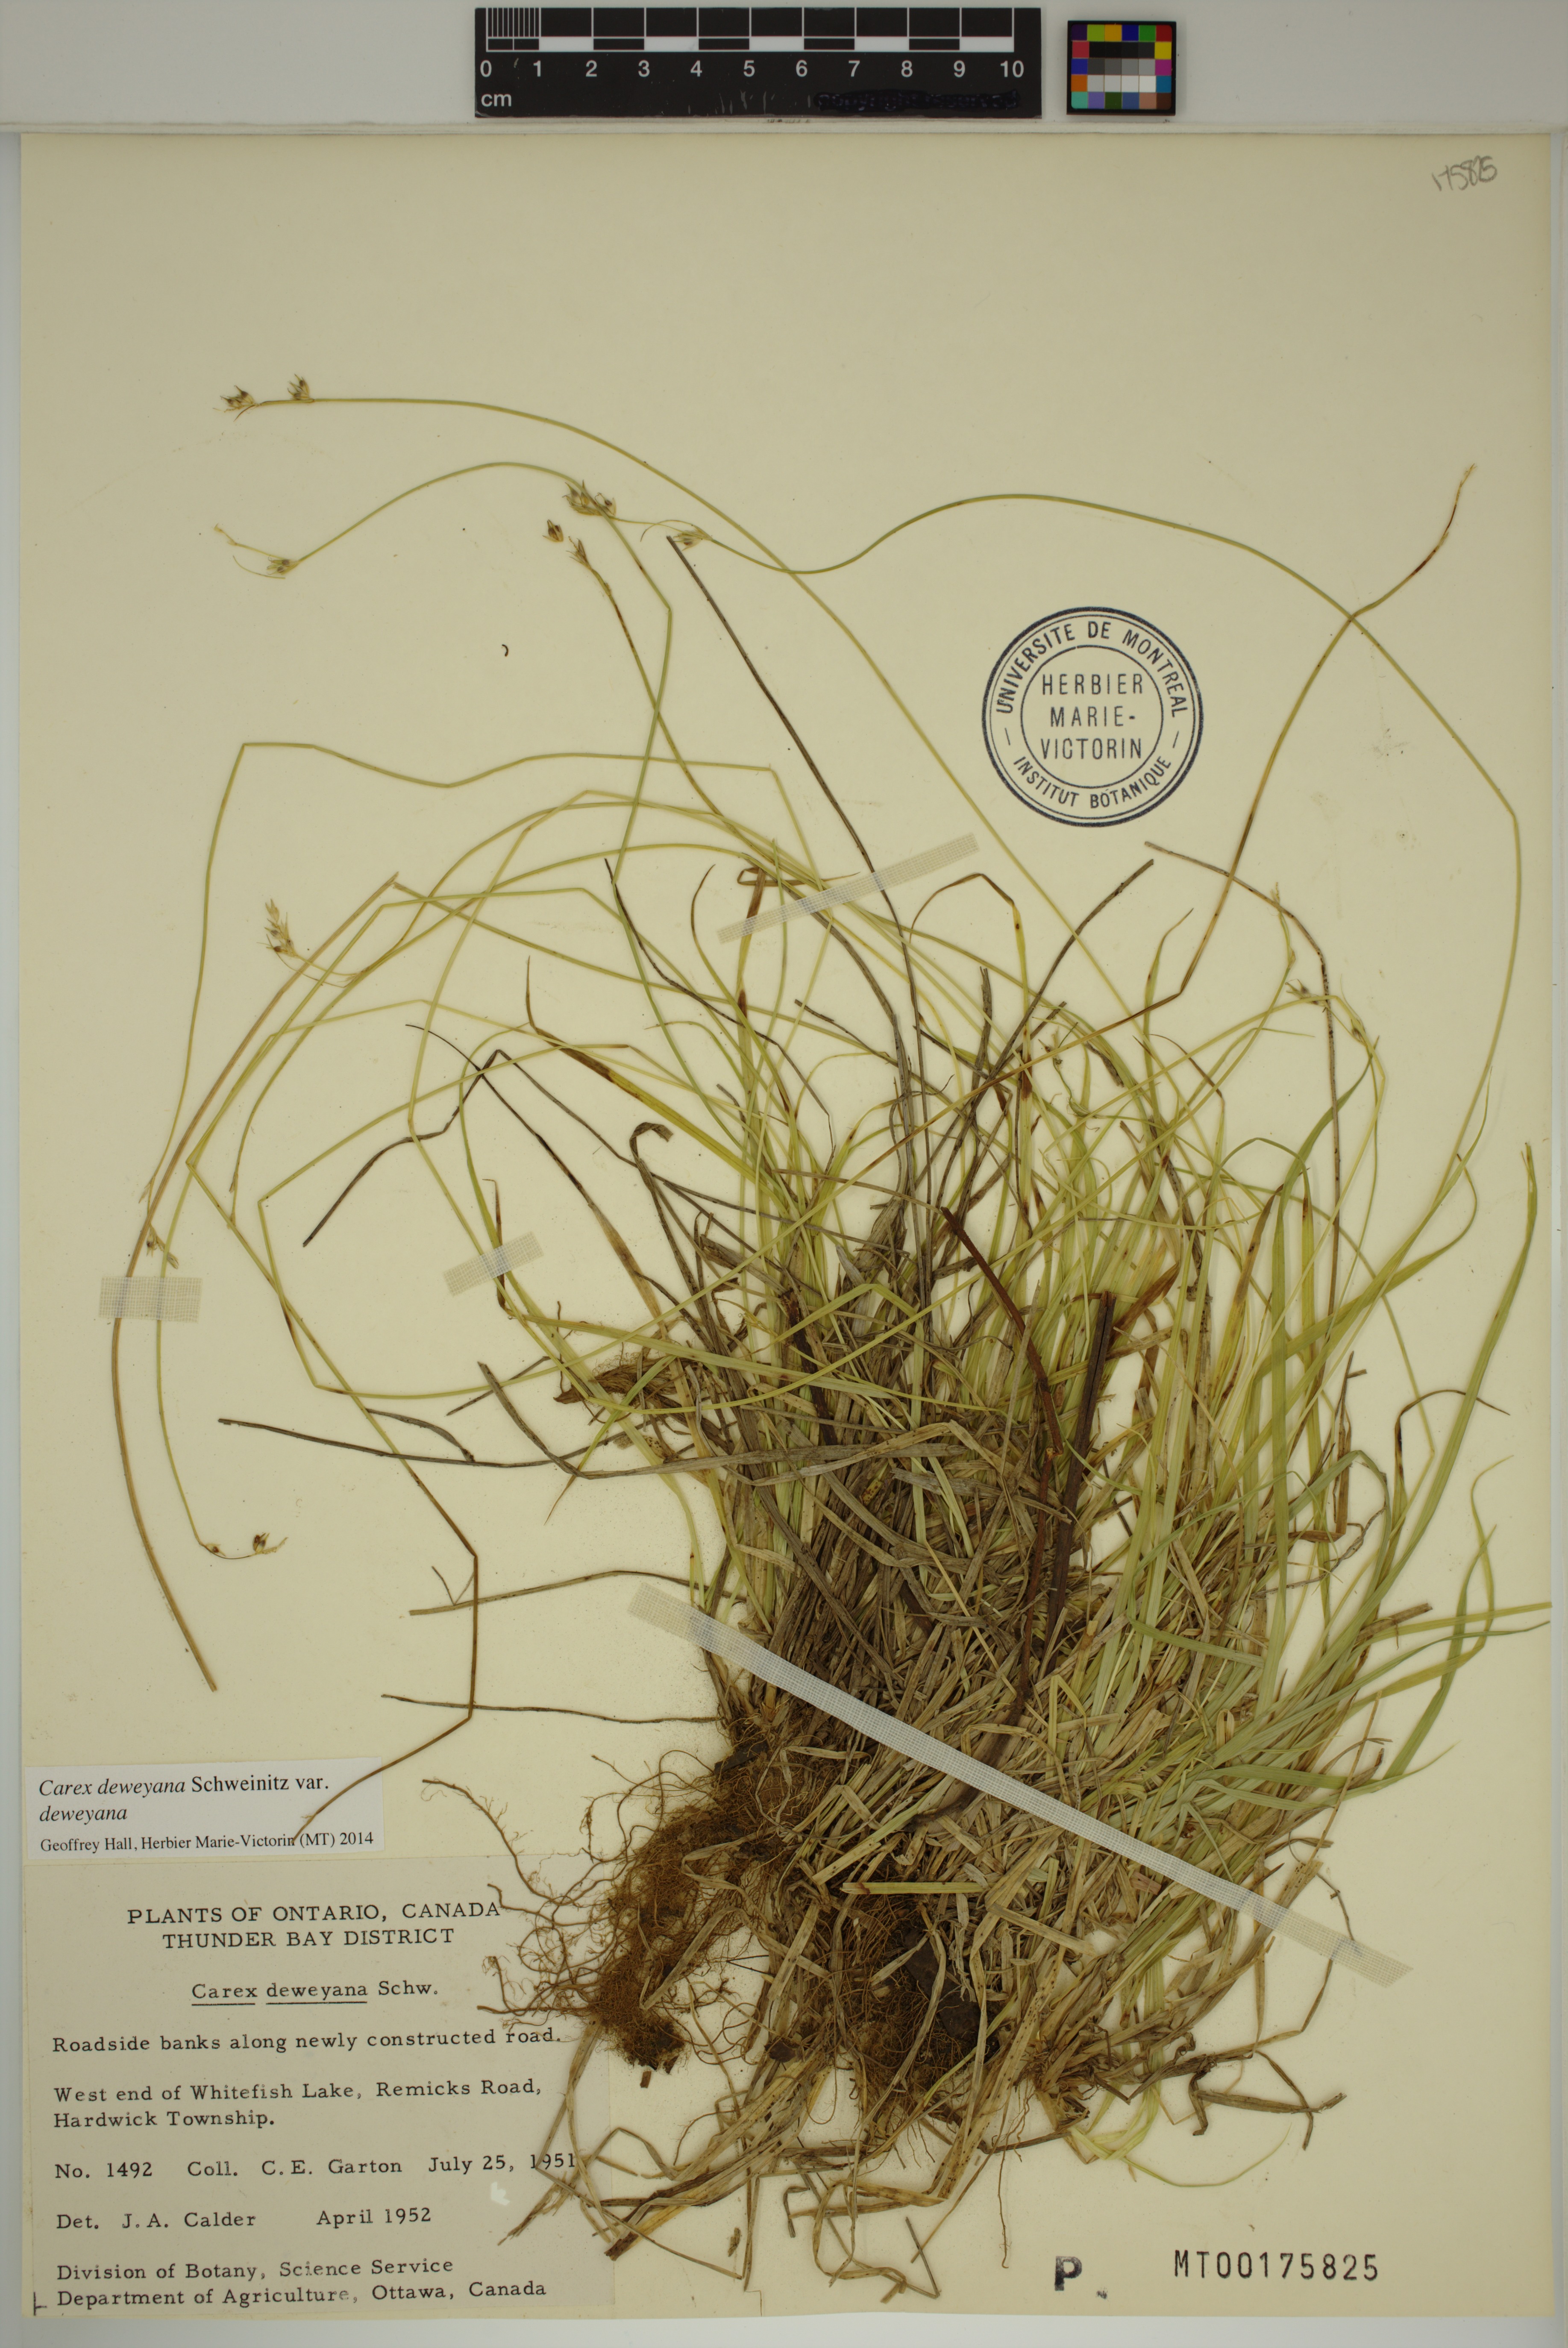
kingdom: Plantae
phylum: Tracheophyta
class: Liliopsida
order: Poales
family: Cyperaceae
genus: Carex
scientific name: Carex deweyana
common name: Dewey's sedge
